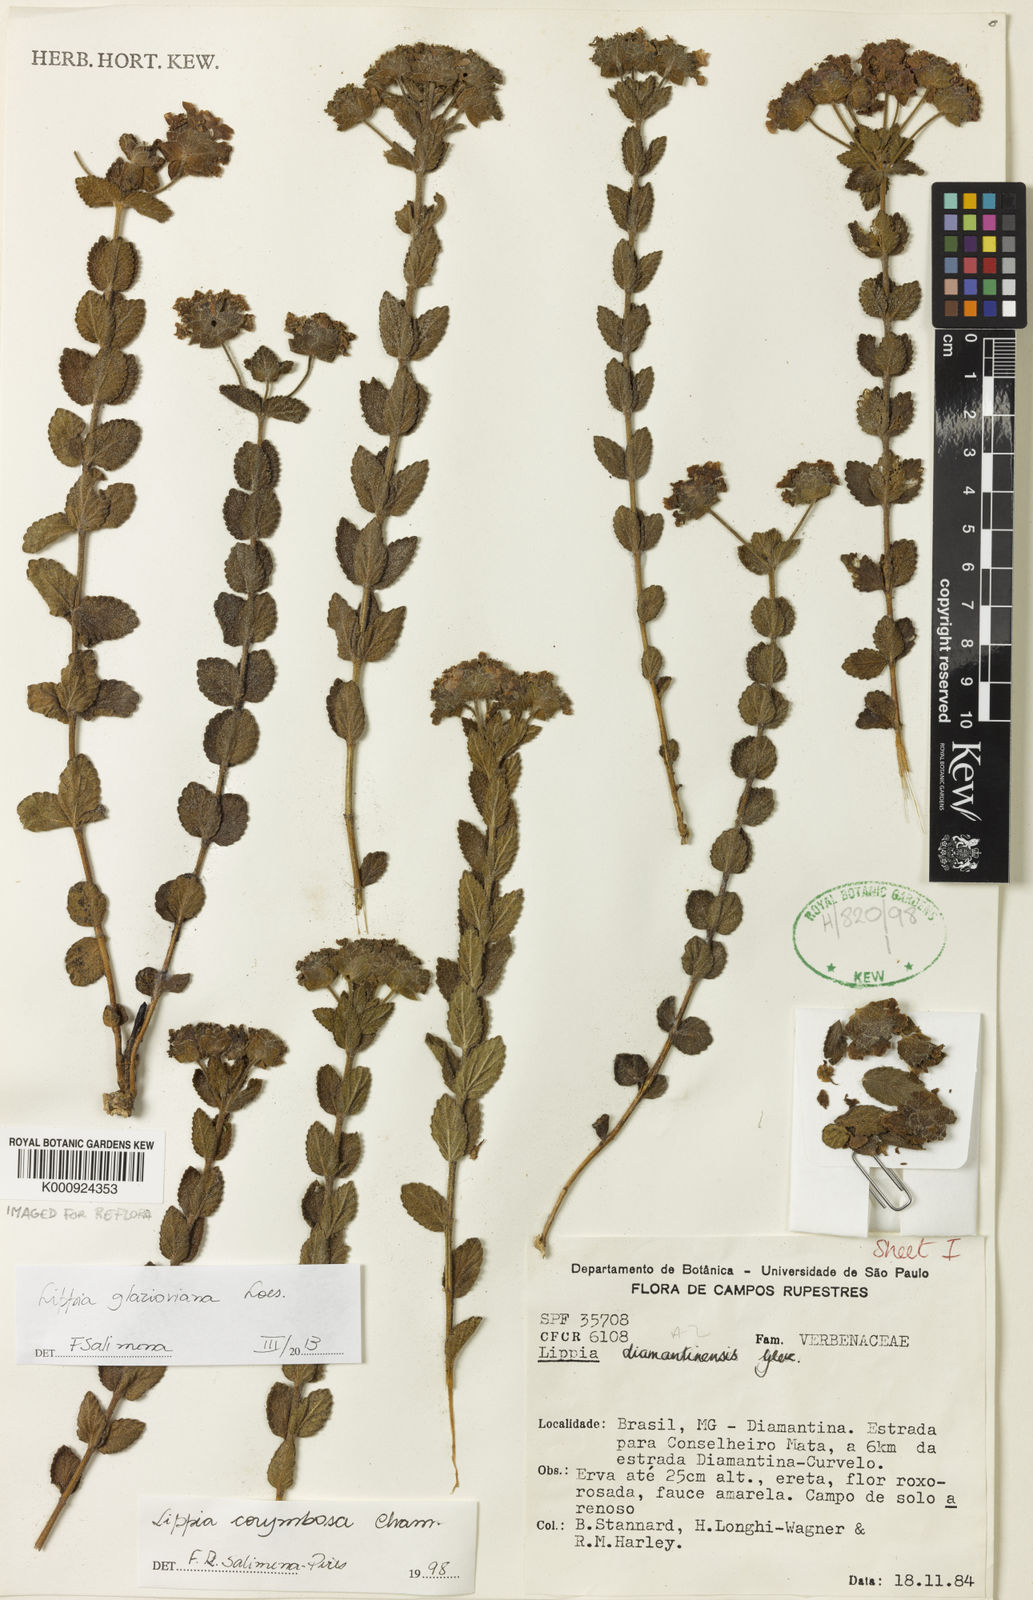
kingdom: Plantae
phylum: Tracheophyta
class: Magnoliopsida
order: Lamiales
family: Verbenaceae
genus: Lippia
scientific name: Lippia glazioviana
